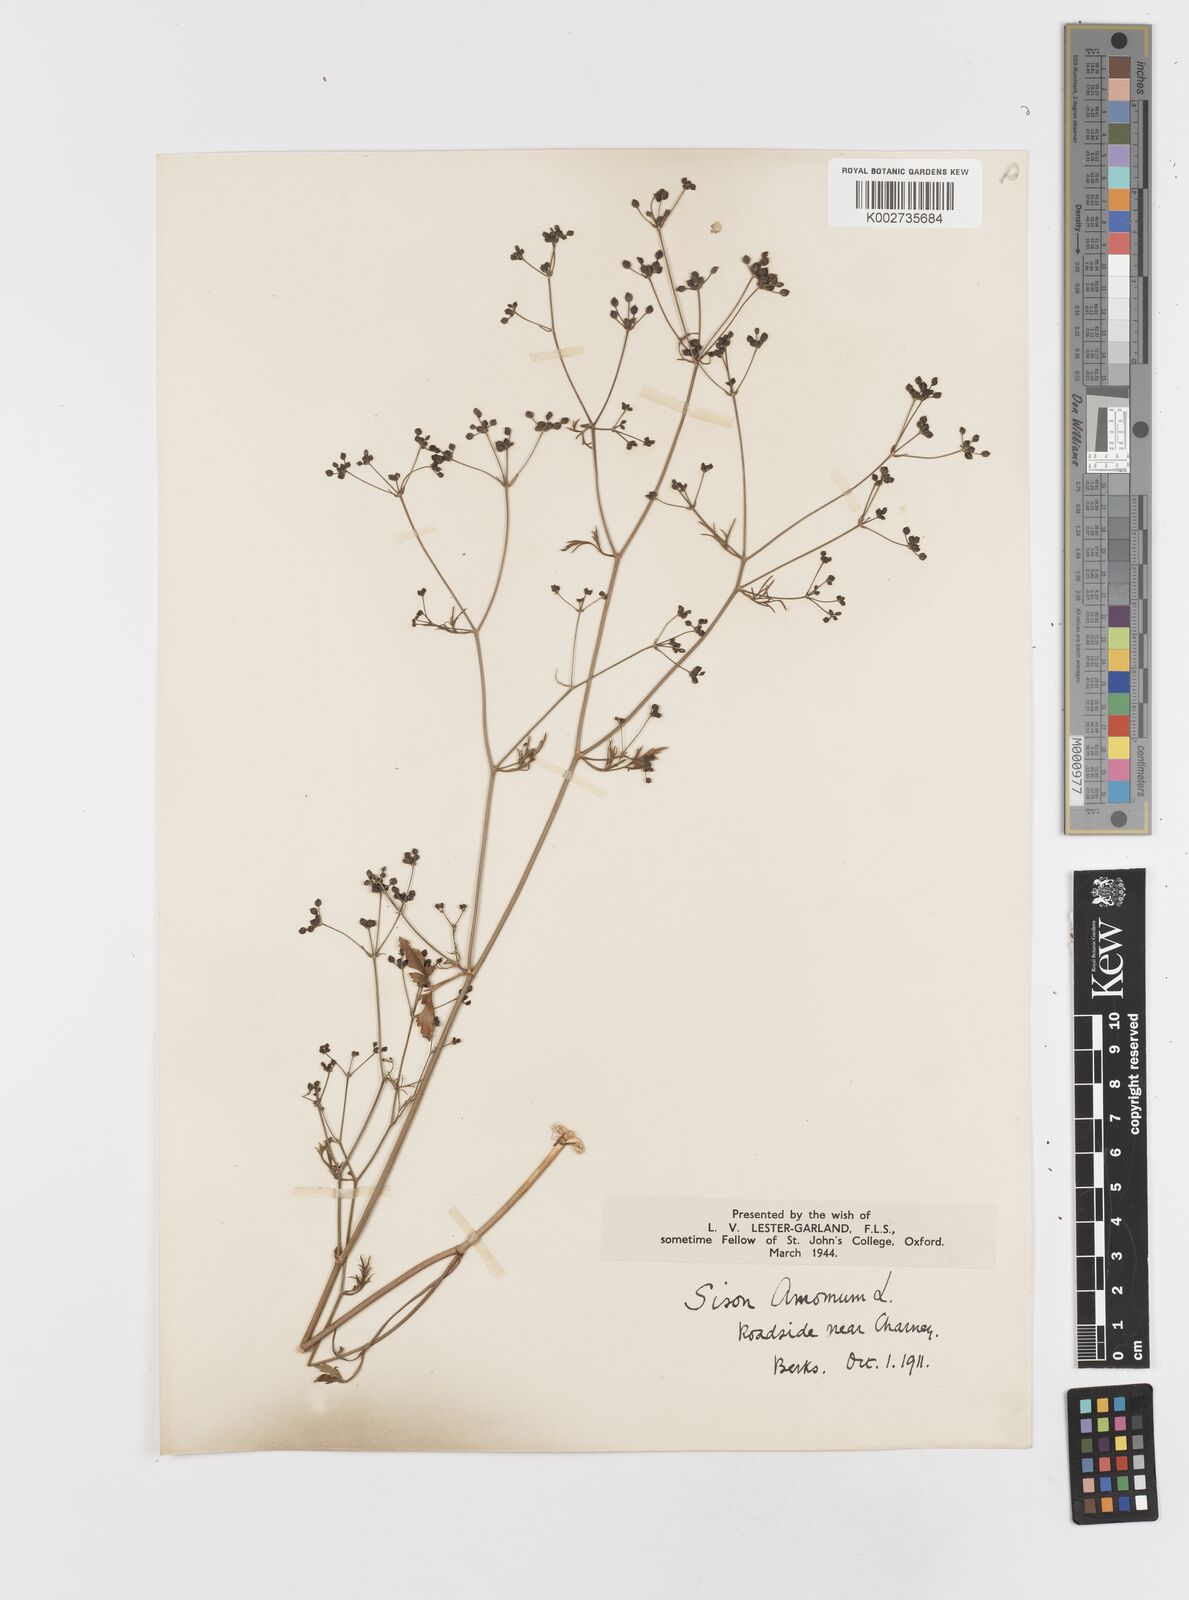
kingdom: Plantae
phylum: Tracheophyta
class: Magnoliopsida
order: Apiales
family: Apiaceae
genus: Sison
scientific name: Sison amomum
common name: Stone-parsley
